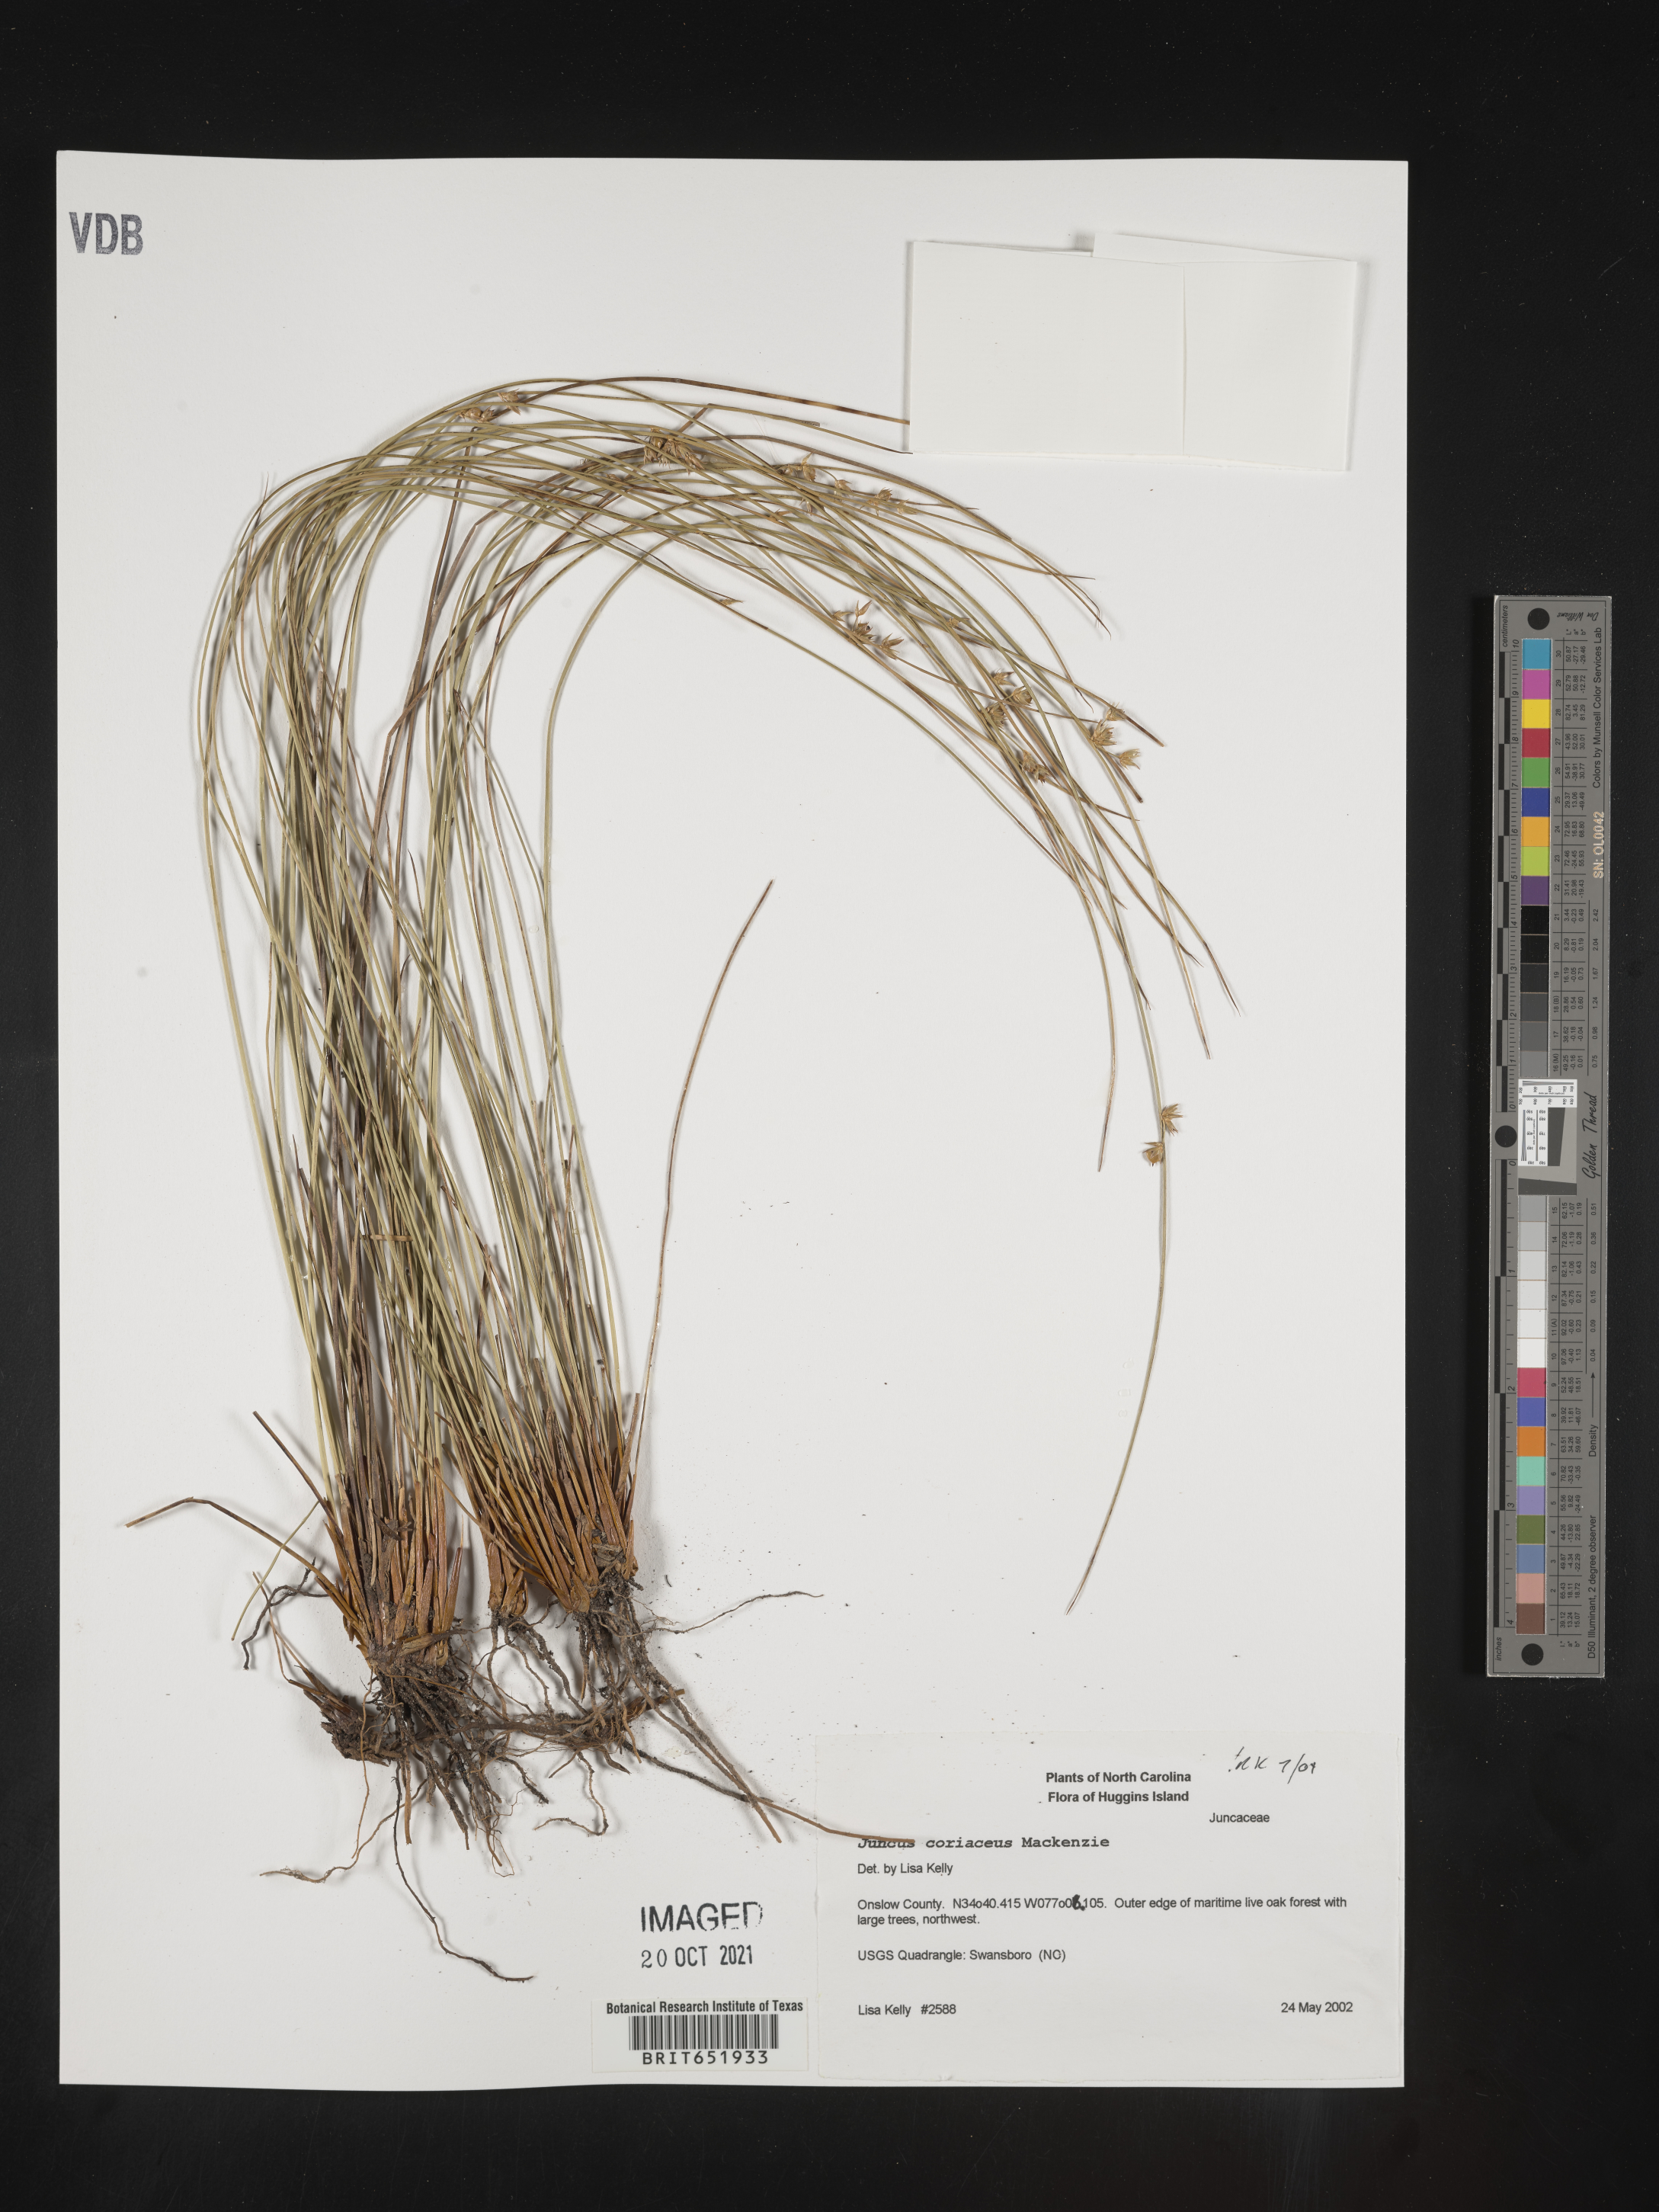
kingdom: Plantae
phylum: Tracheophyta
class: Liliopsida
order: Poales
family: Juncaceae
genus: Juncus
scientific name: Juncus coriaceus
